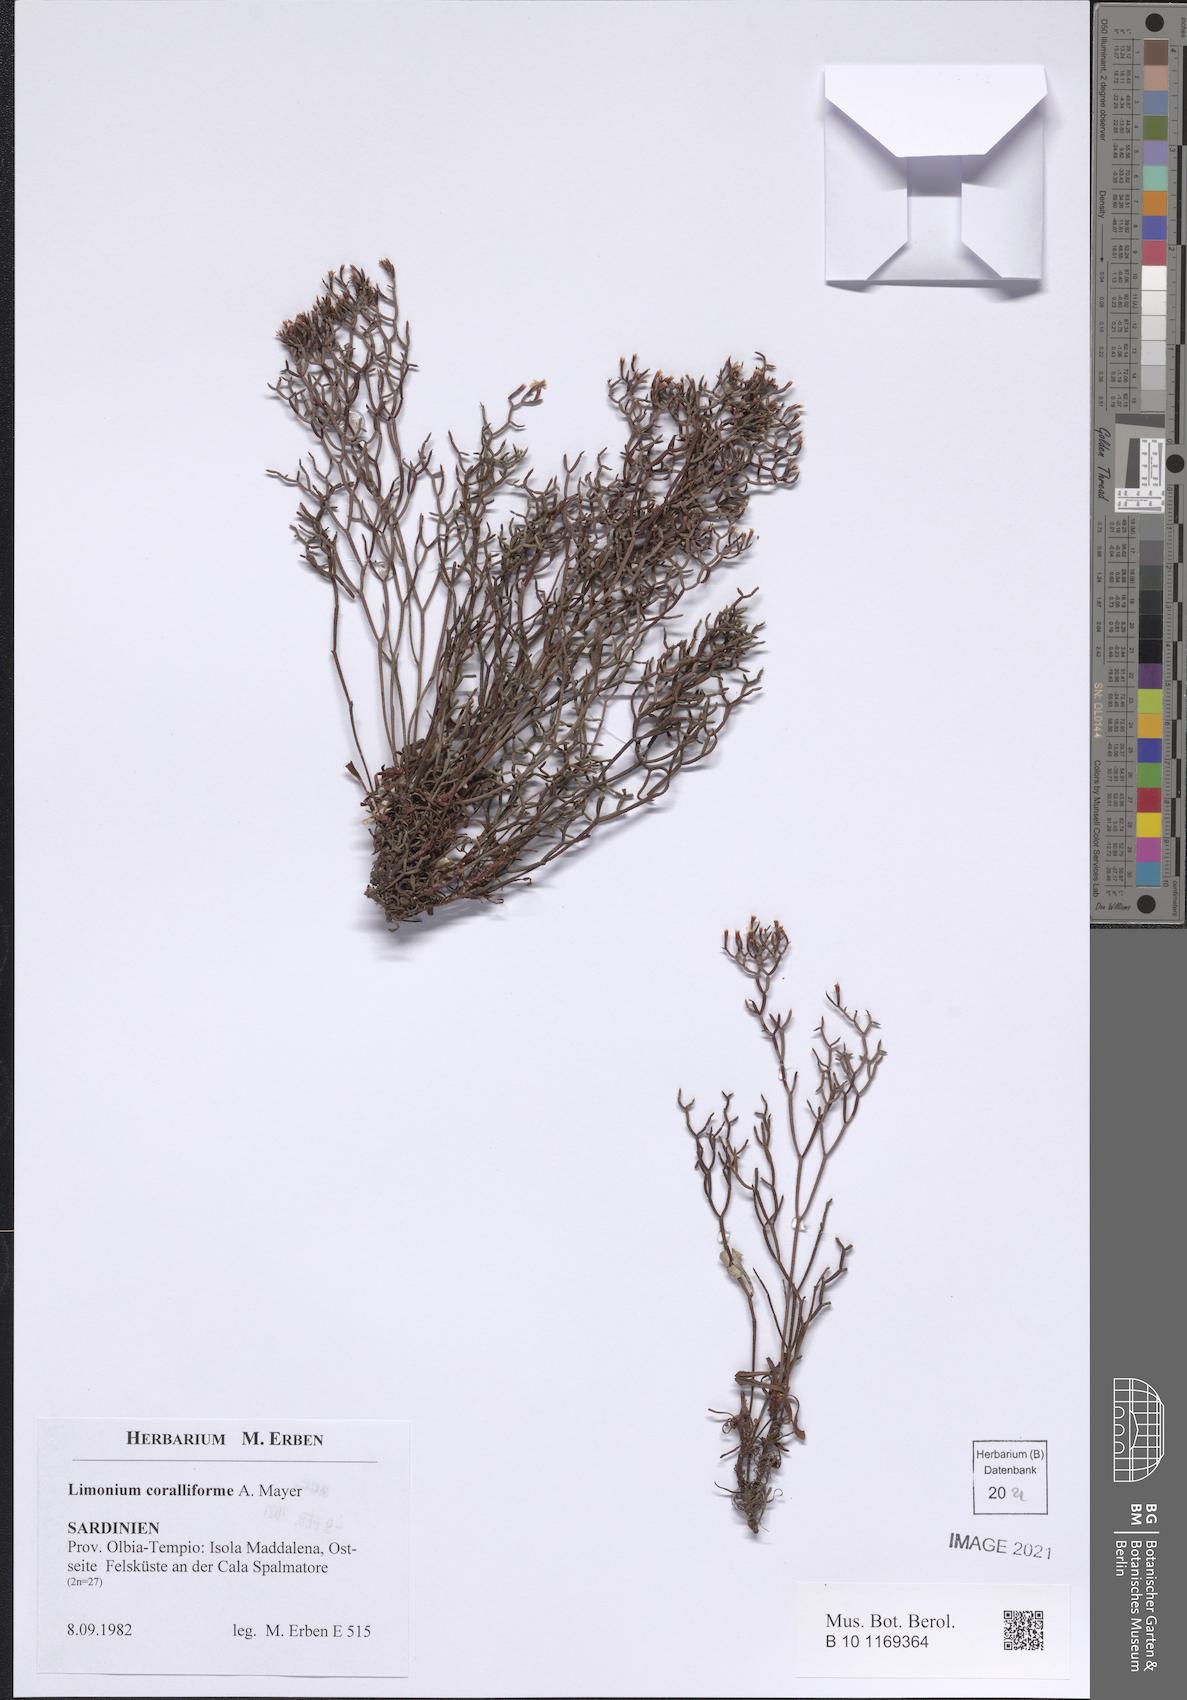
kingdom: Plantae
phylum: Tracheophyta
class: Magnoliopsida
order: Caryophyllales
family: Plumbaginaceae
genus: Limonium
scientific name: Limonium coralliforme
